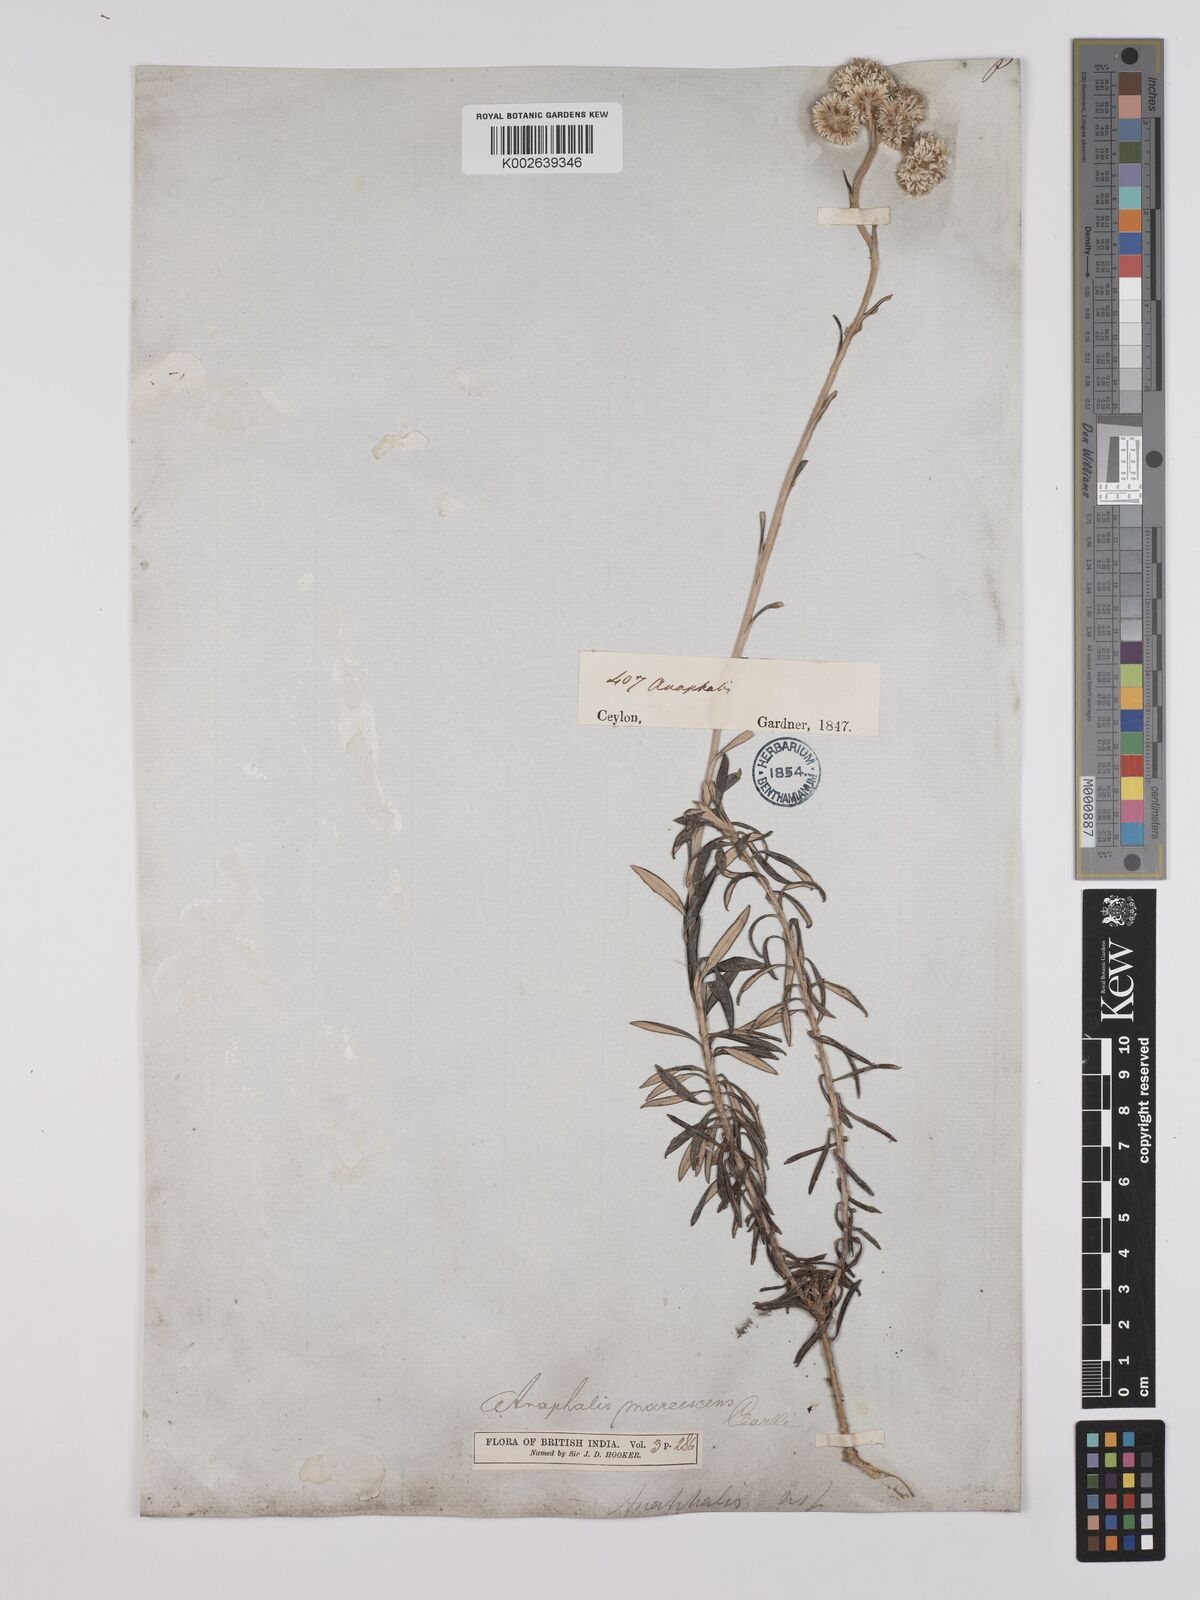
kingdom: Plantae
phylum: Tracheophyta
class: Magnoliopsida
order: Asterales
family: Asteraceae
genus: Anaphalis
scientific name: Anaphalis marcescens
